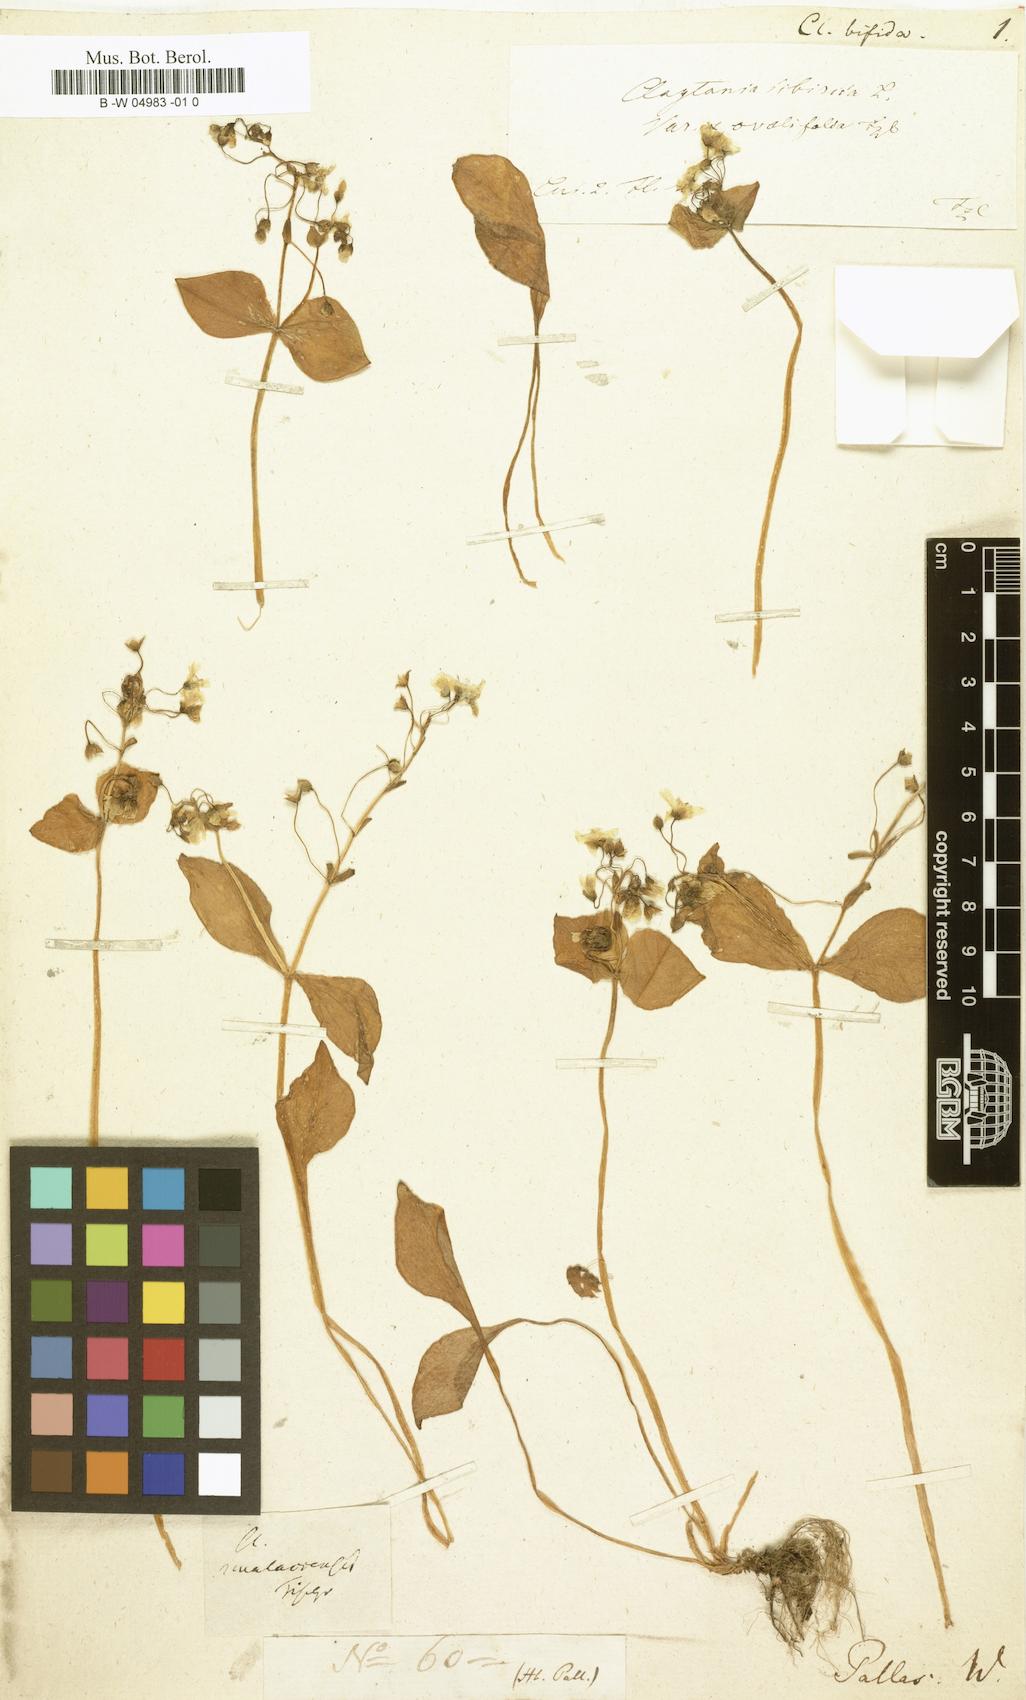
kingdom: Plantae
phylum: Tracheophyta
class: Magnoliopsida
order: Caryophyllales
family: Montiaceae
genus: Claytonia
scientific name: Claytonia sibirica
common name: Pink purslane
